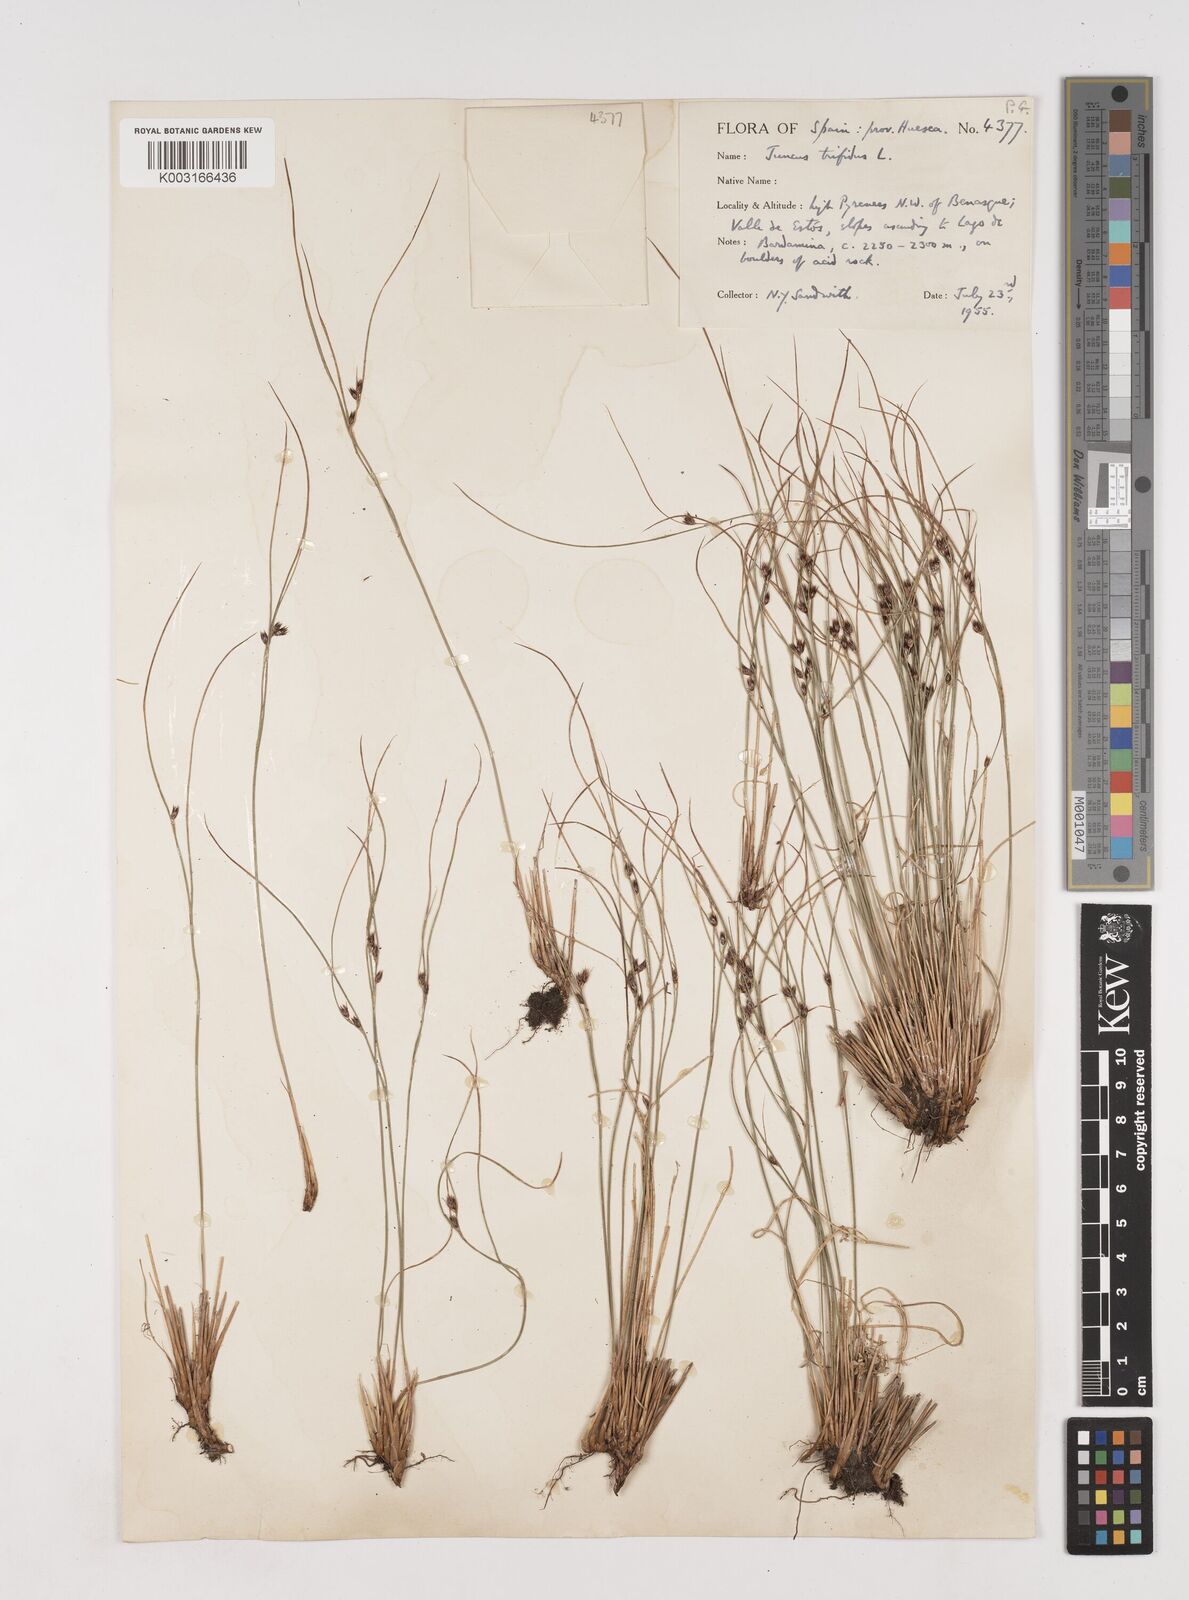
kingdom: Plantae
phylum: Tracheophyta
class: Liliopsida
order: Poales
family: Juncaceae
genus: Oreojuncus
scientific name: Oreojuncus trifidus
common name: Highland rush
